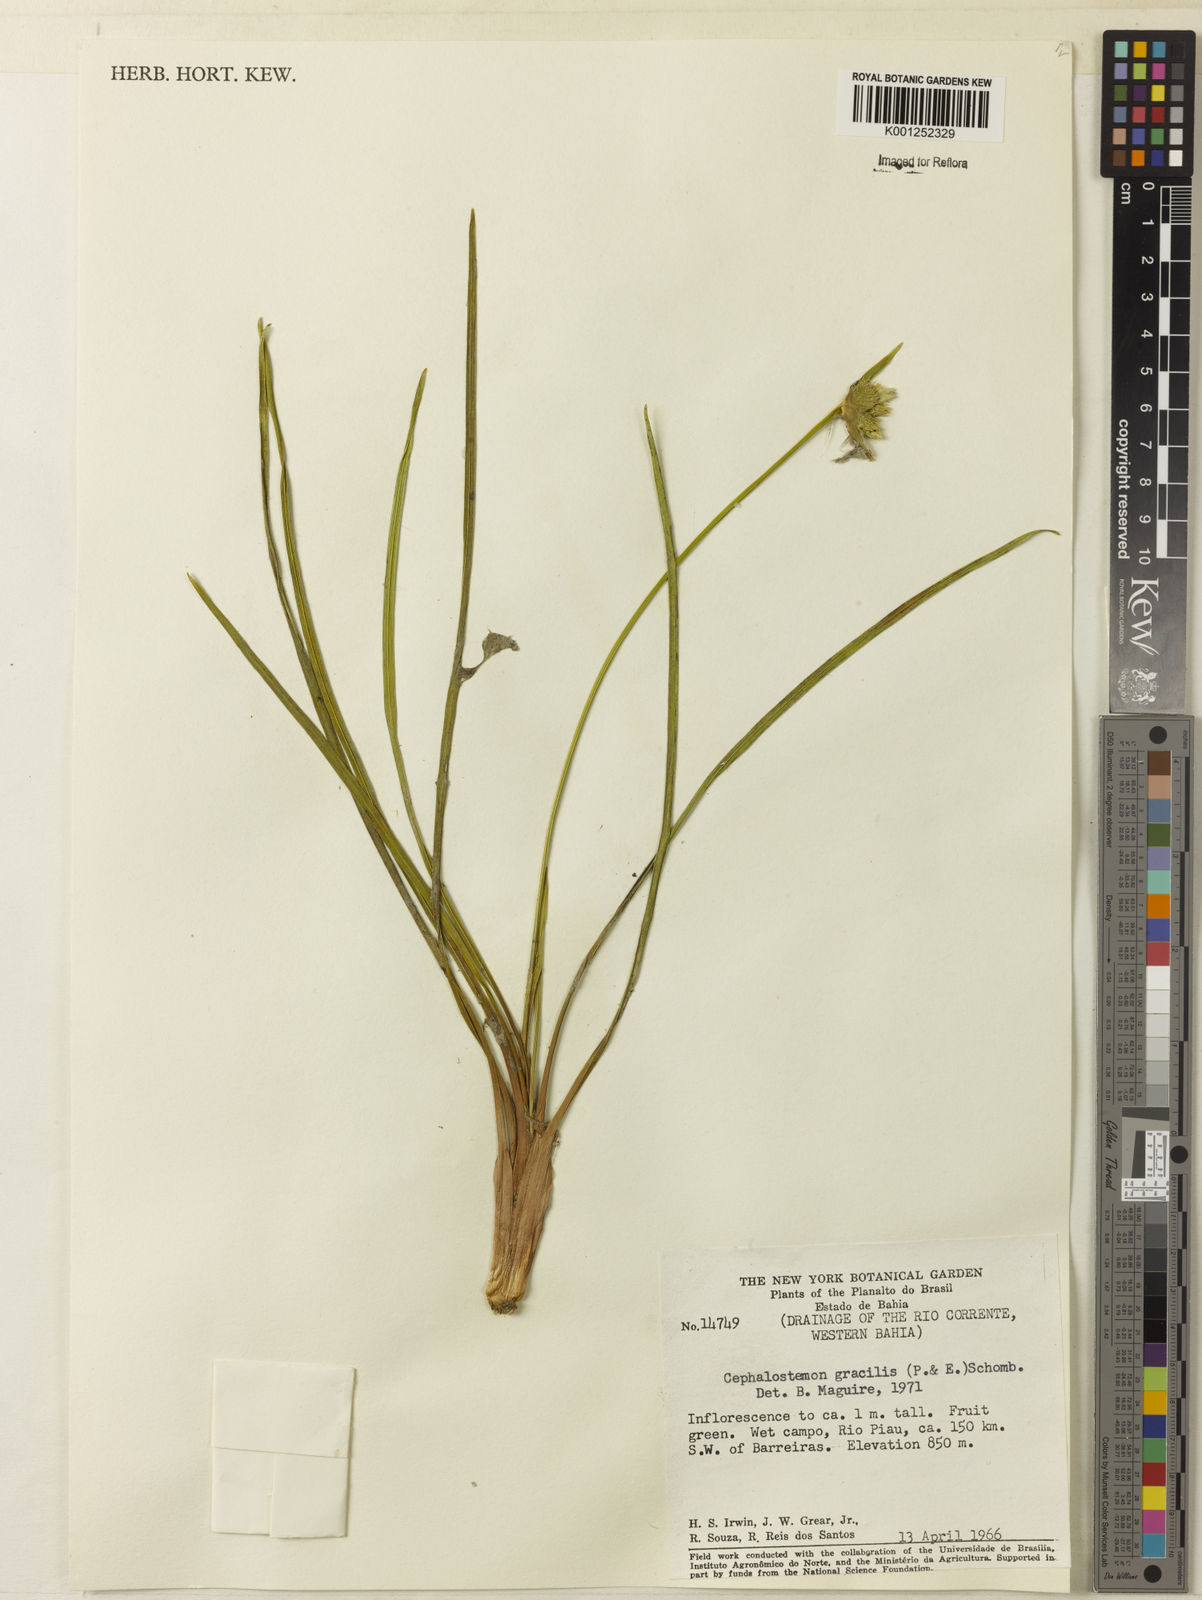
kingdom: Plantae
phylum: Tracheophyta
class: Liliopsida
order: Poales
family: Rapateaceae
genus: Cephalostemon
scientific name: Cephalostemon gracilis
